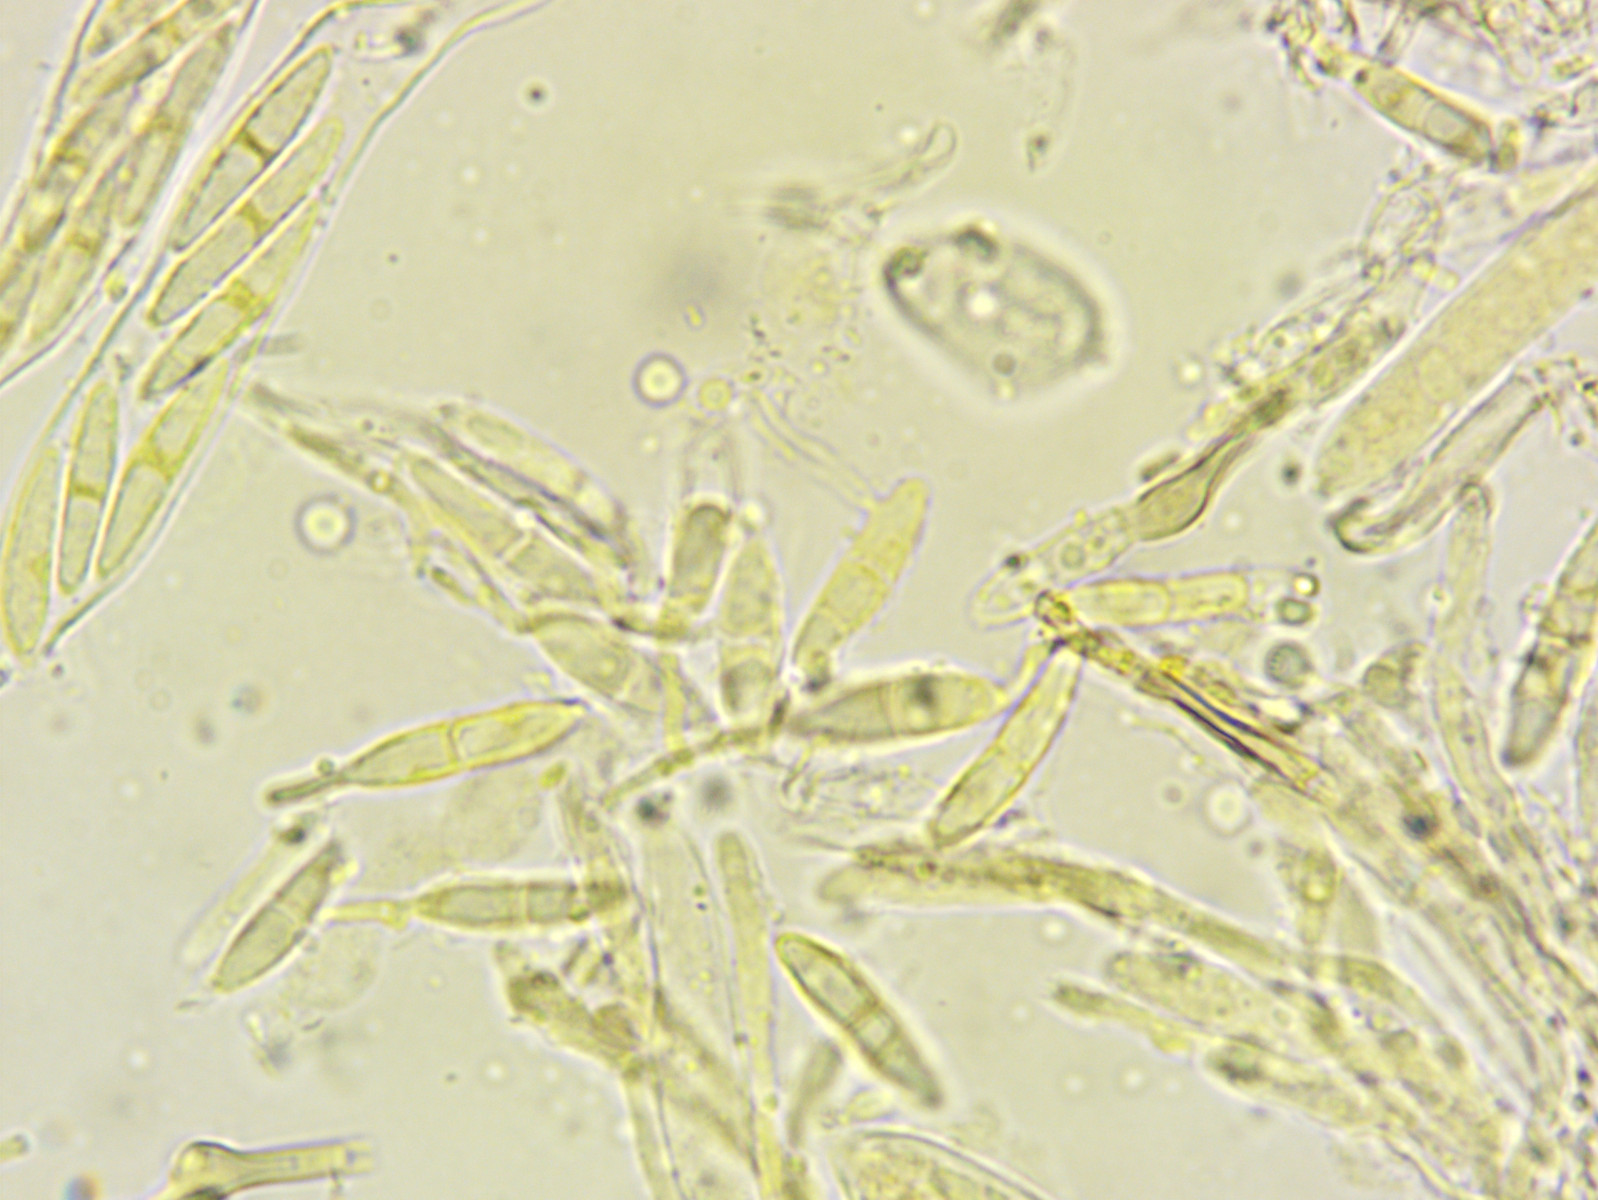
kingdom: Fungi
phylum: Ascomycota
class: Leotiomycetes
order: Helotiales
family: Pezizellaceae
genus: Pezizella
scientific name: Pezizella
